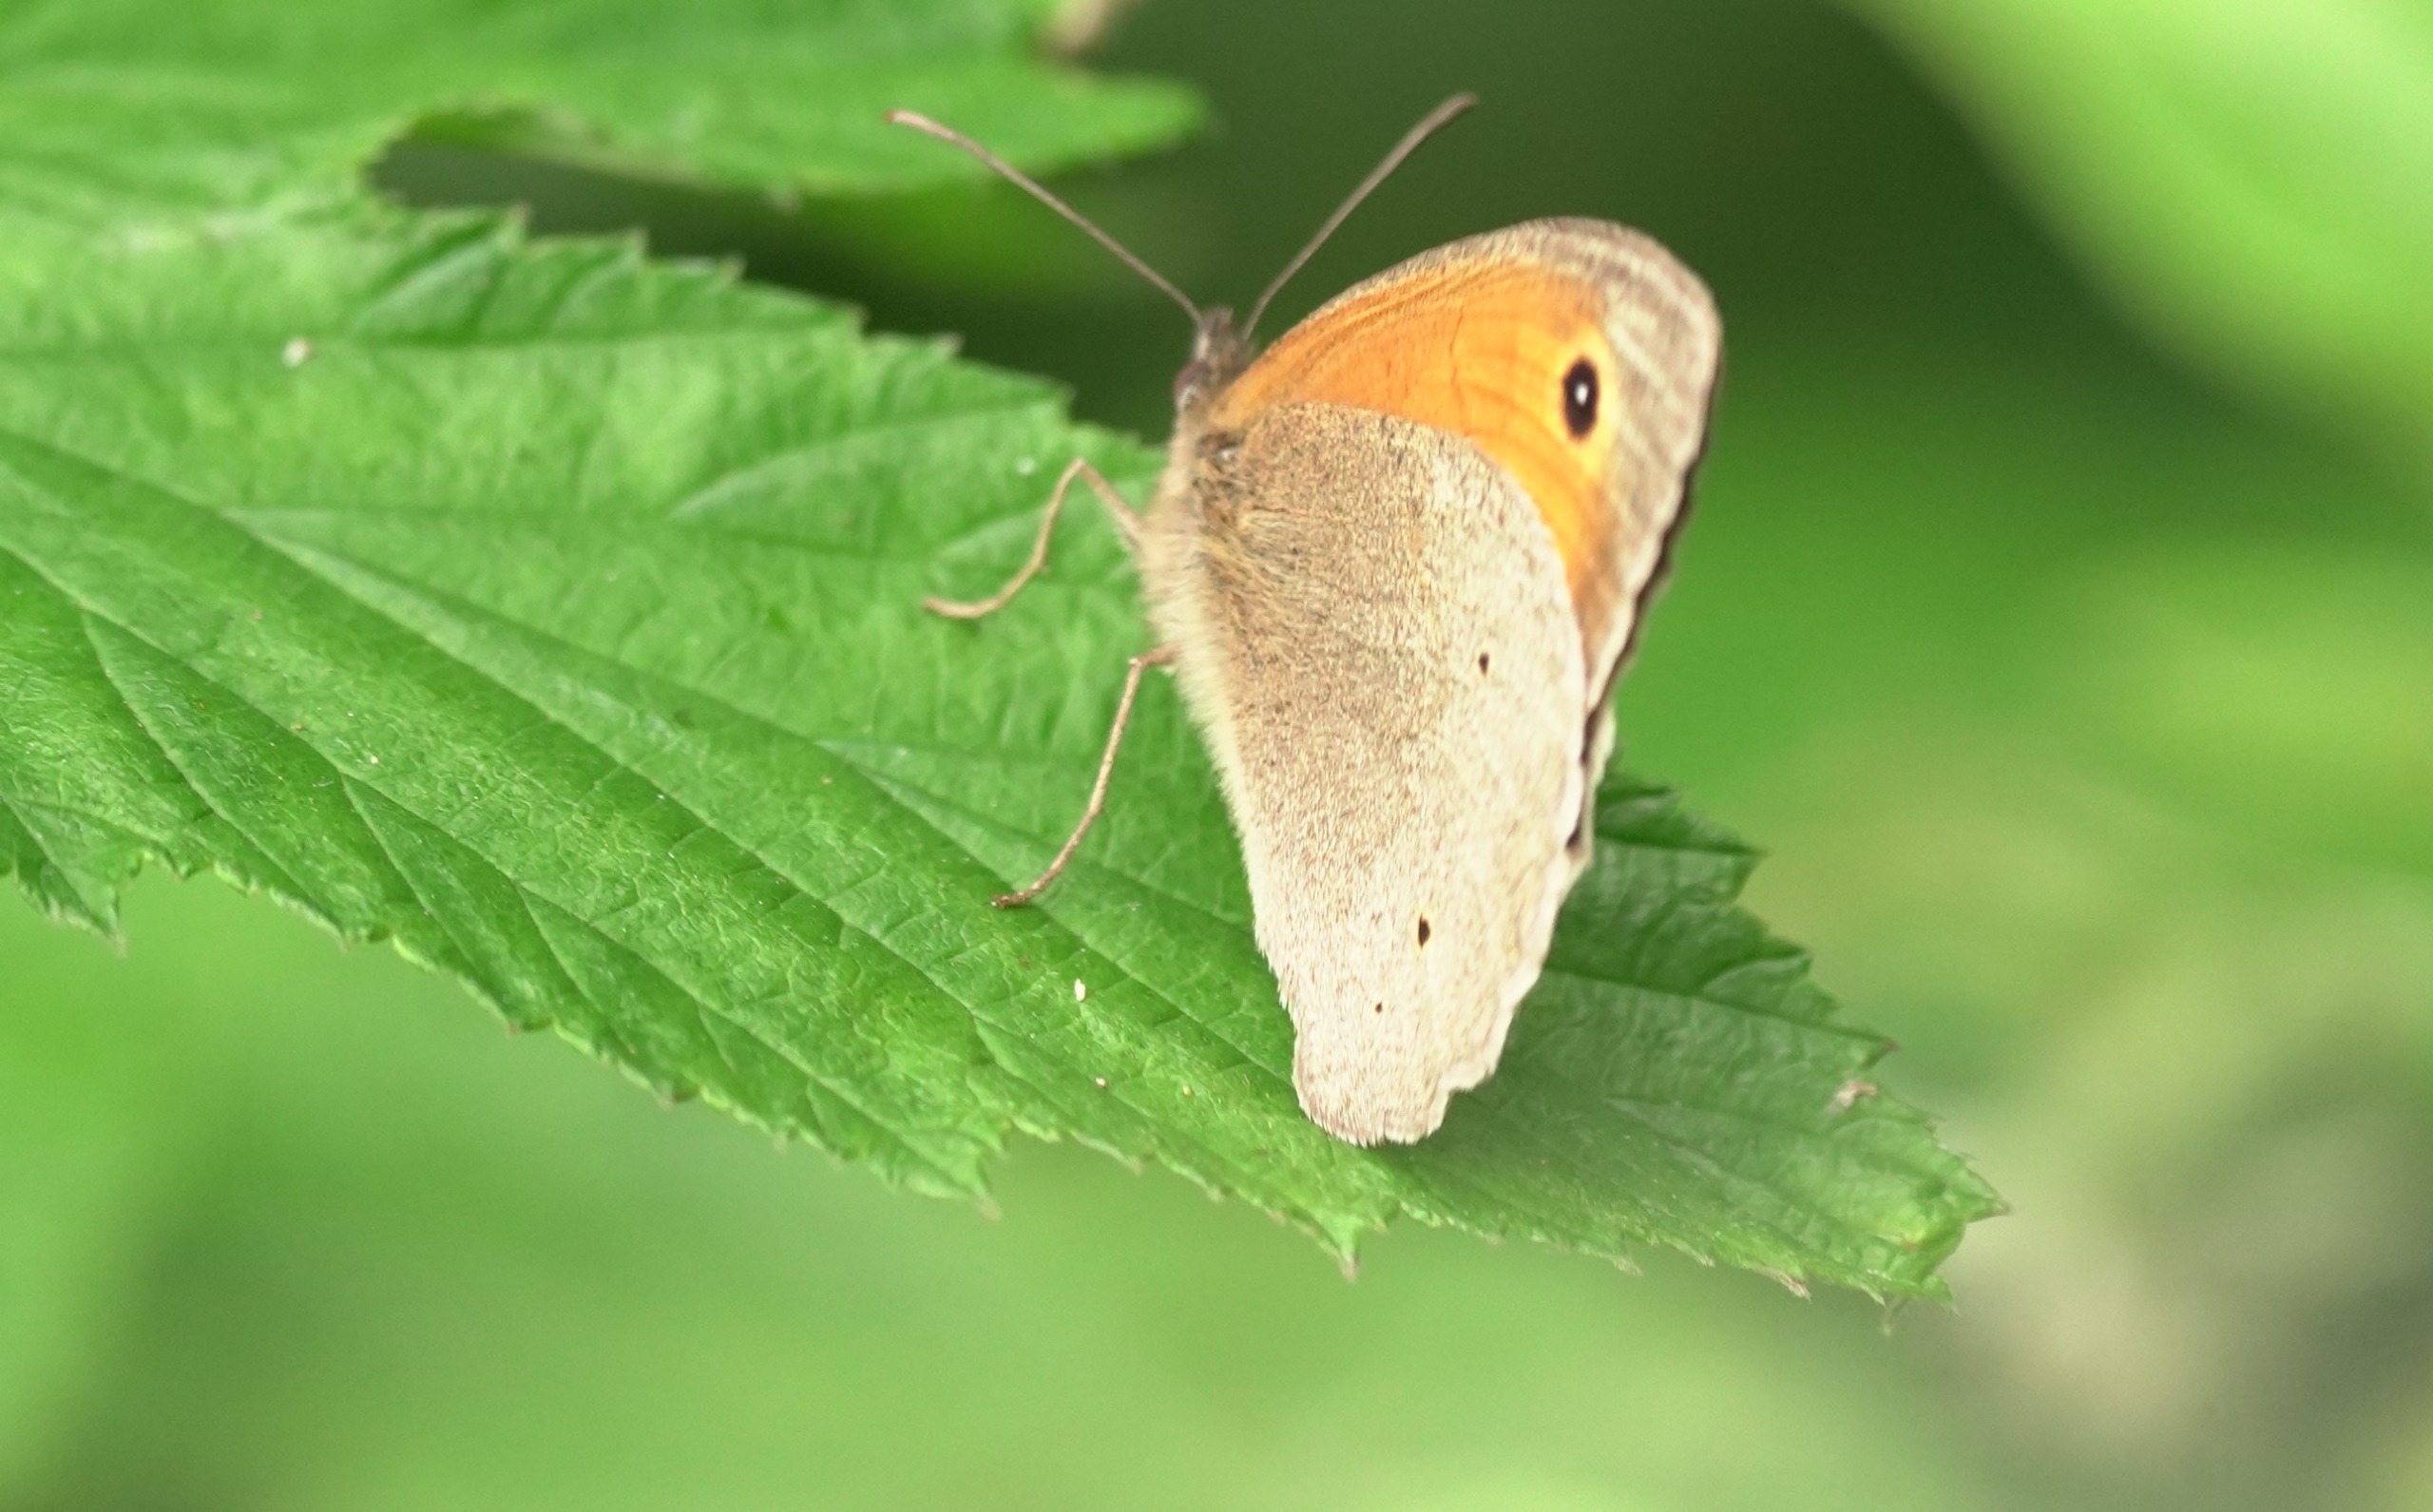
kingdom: Animalia
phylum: Arthropoda
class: Insecta
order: Lepidoptera
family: Nymphalidae
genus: Maniola
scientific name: Maniola jurtina
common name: Græsrandøje
